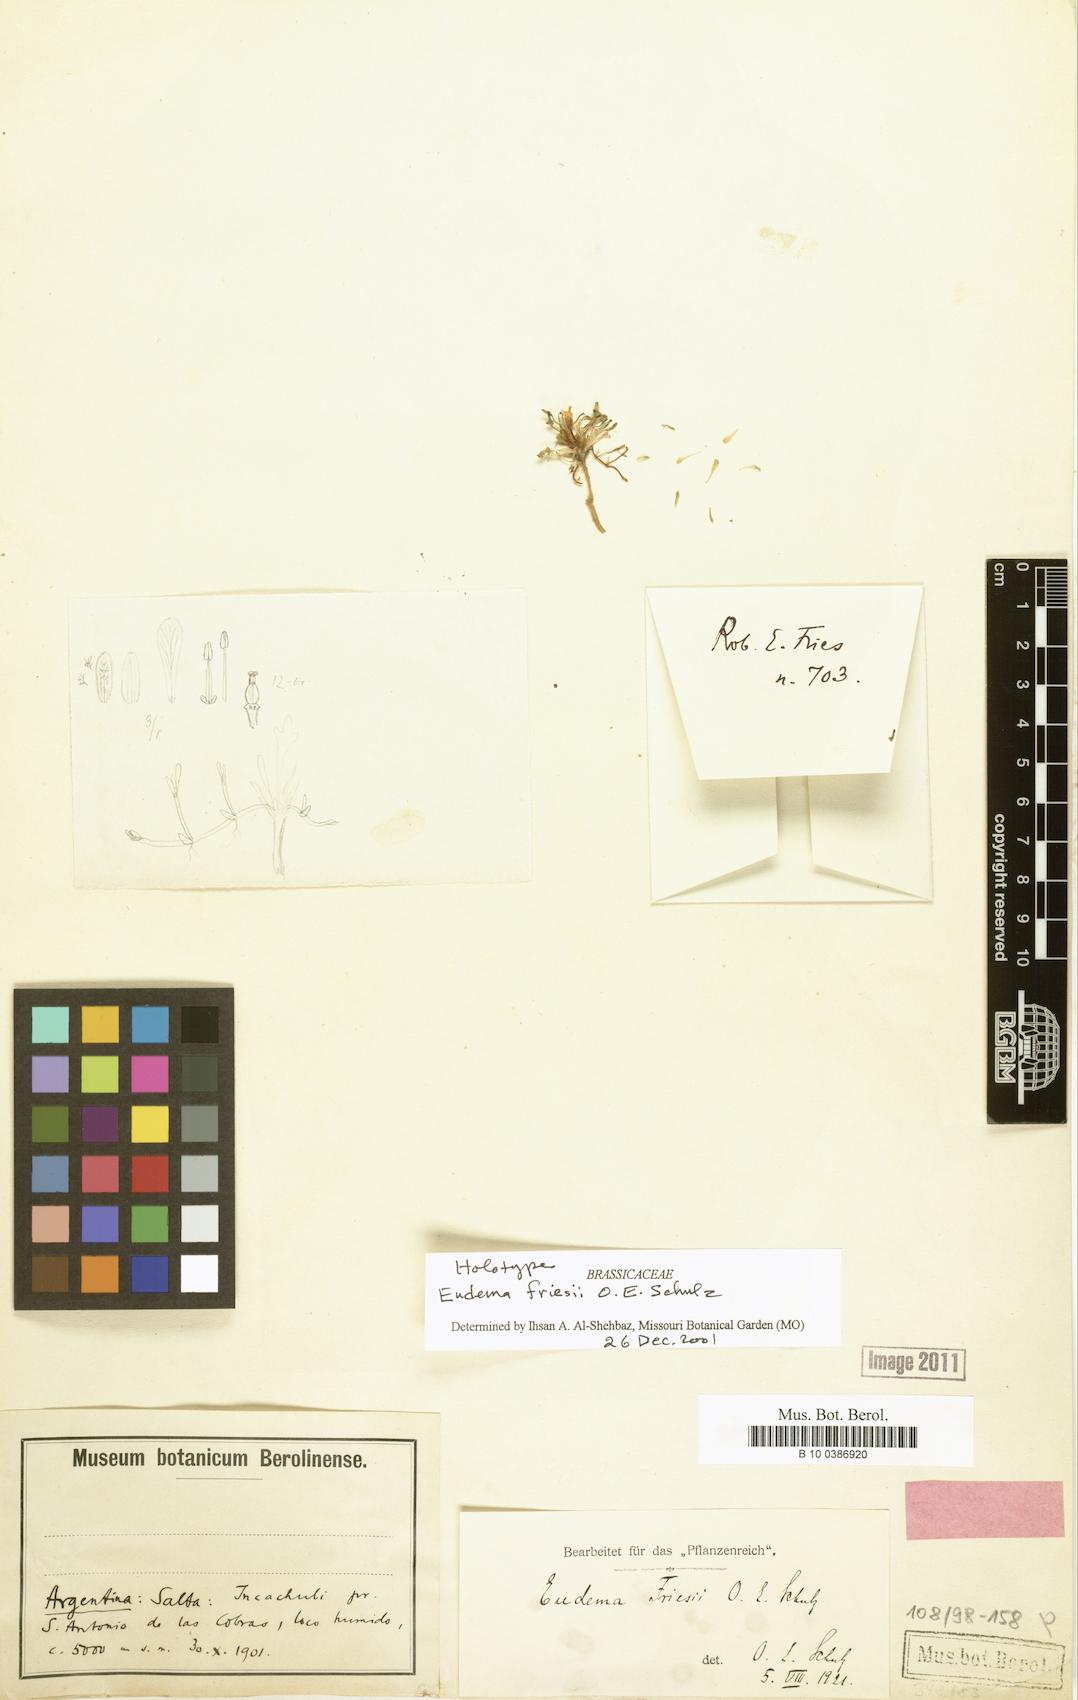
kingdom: Plantae
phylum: Tracheophyta
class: Magnoliopsida
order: Brassicales
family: Brassicaceae
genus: Petroravenia
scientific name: Petroravenia friesii
